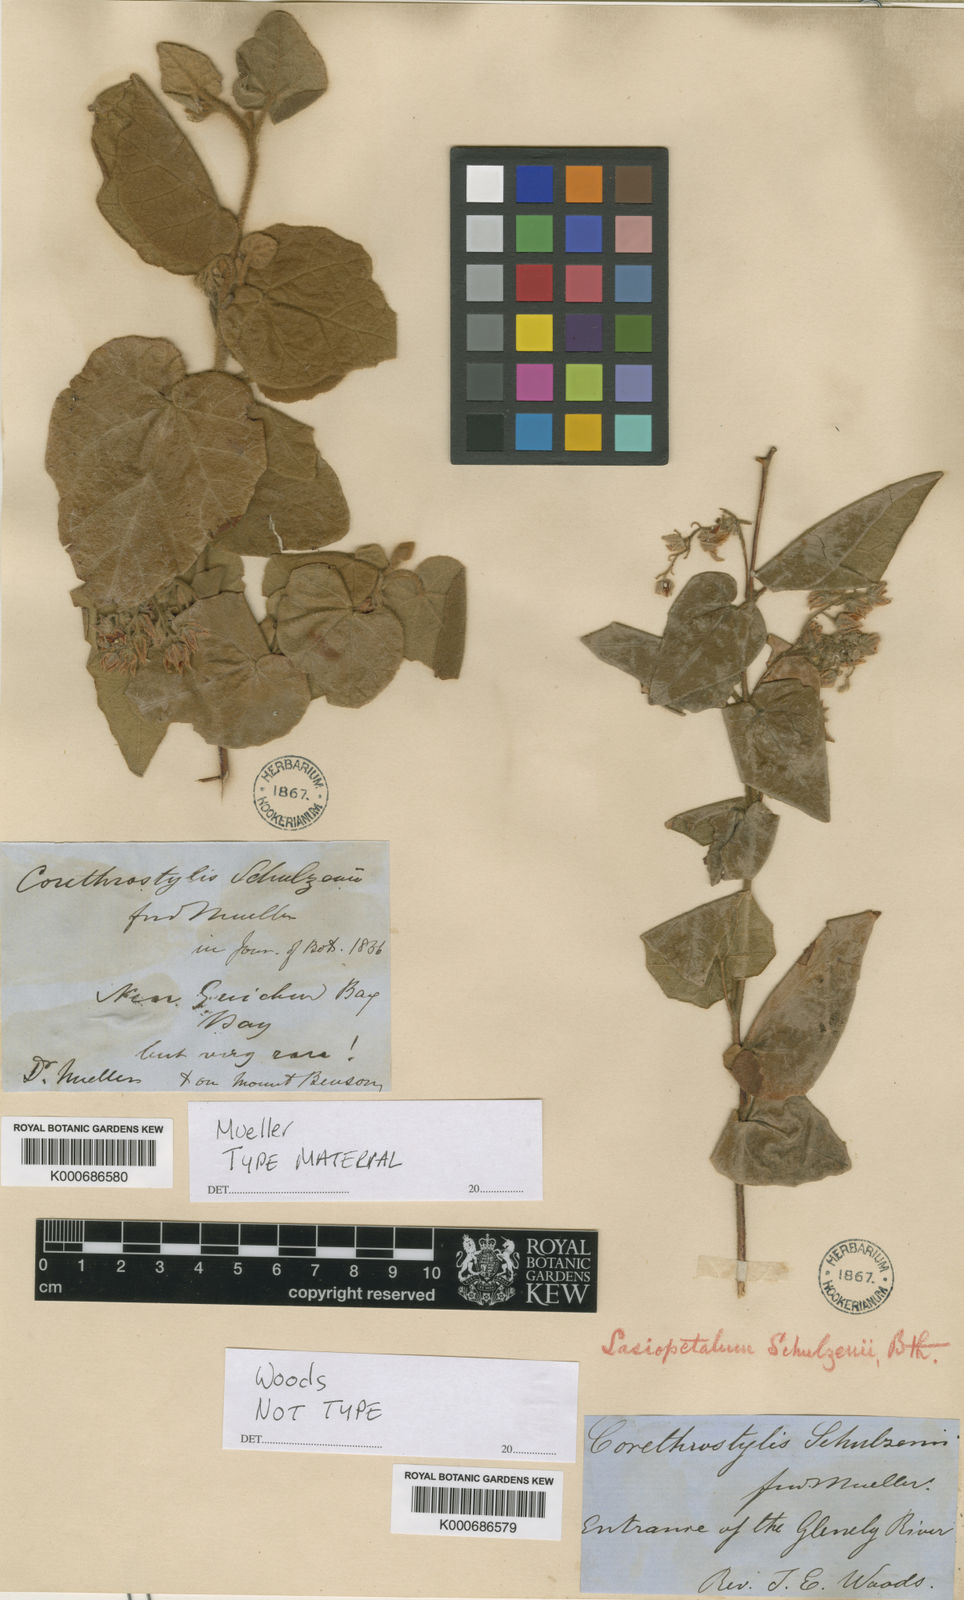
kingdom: Plantae
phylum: Tracheophyta
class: Magnoliopsida
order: Malvales
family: Malvaceae
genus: Lasiopetalum
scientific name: Lasiopetalum schulzenii
